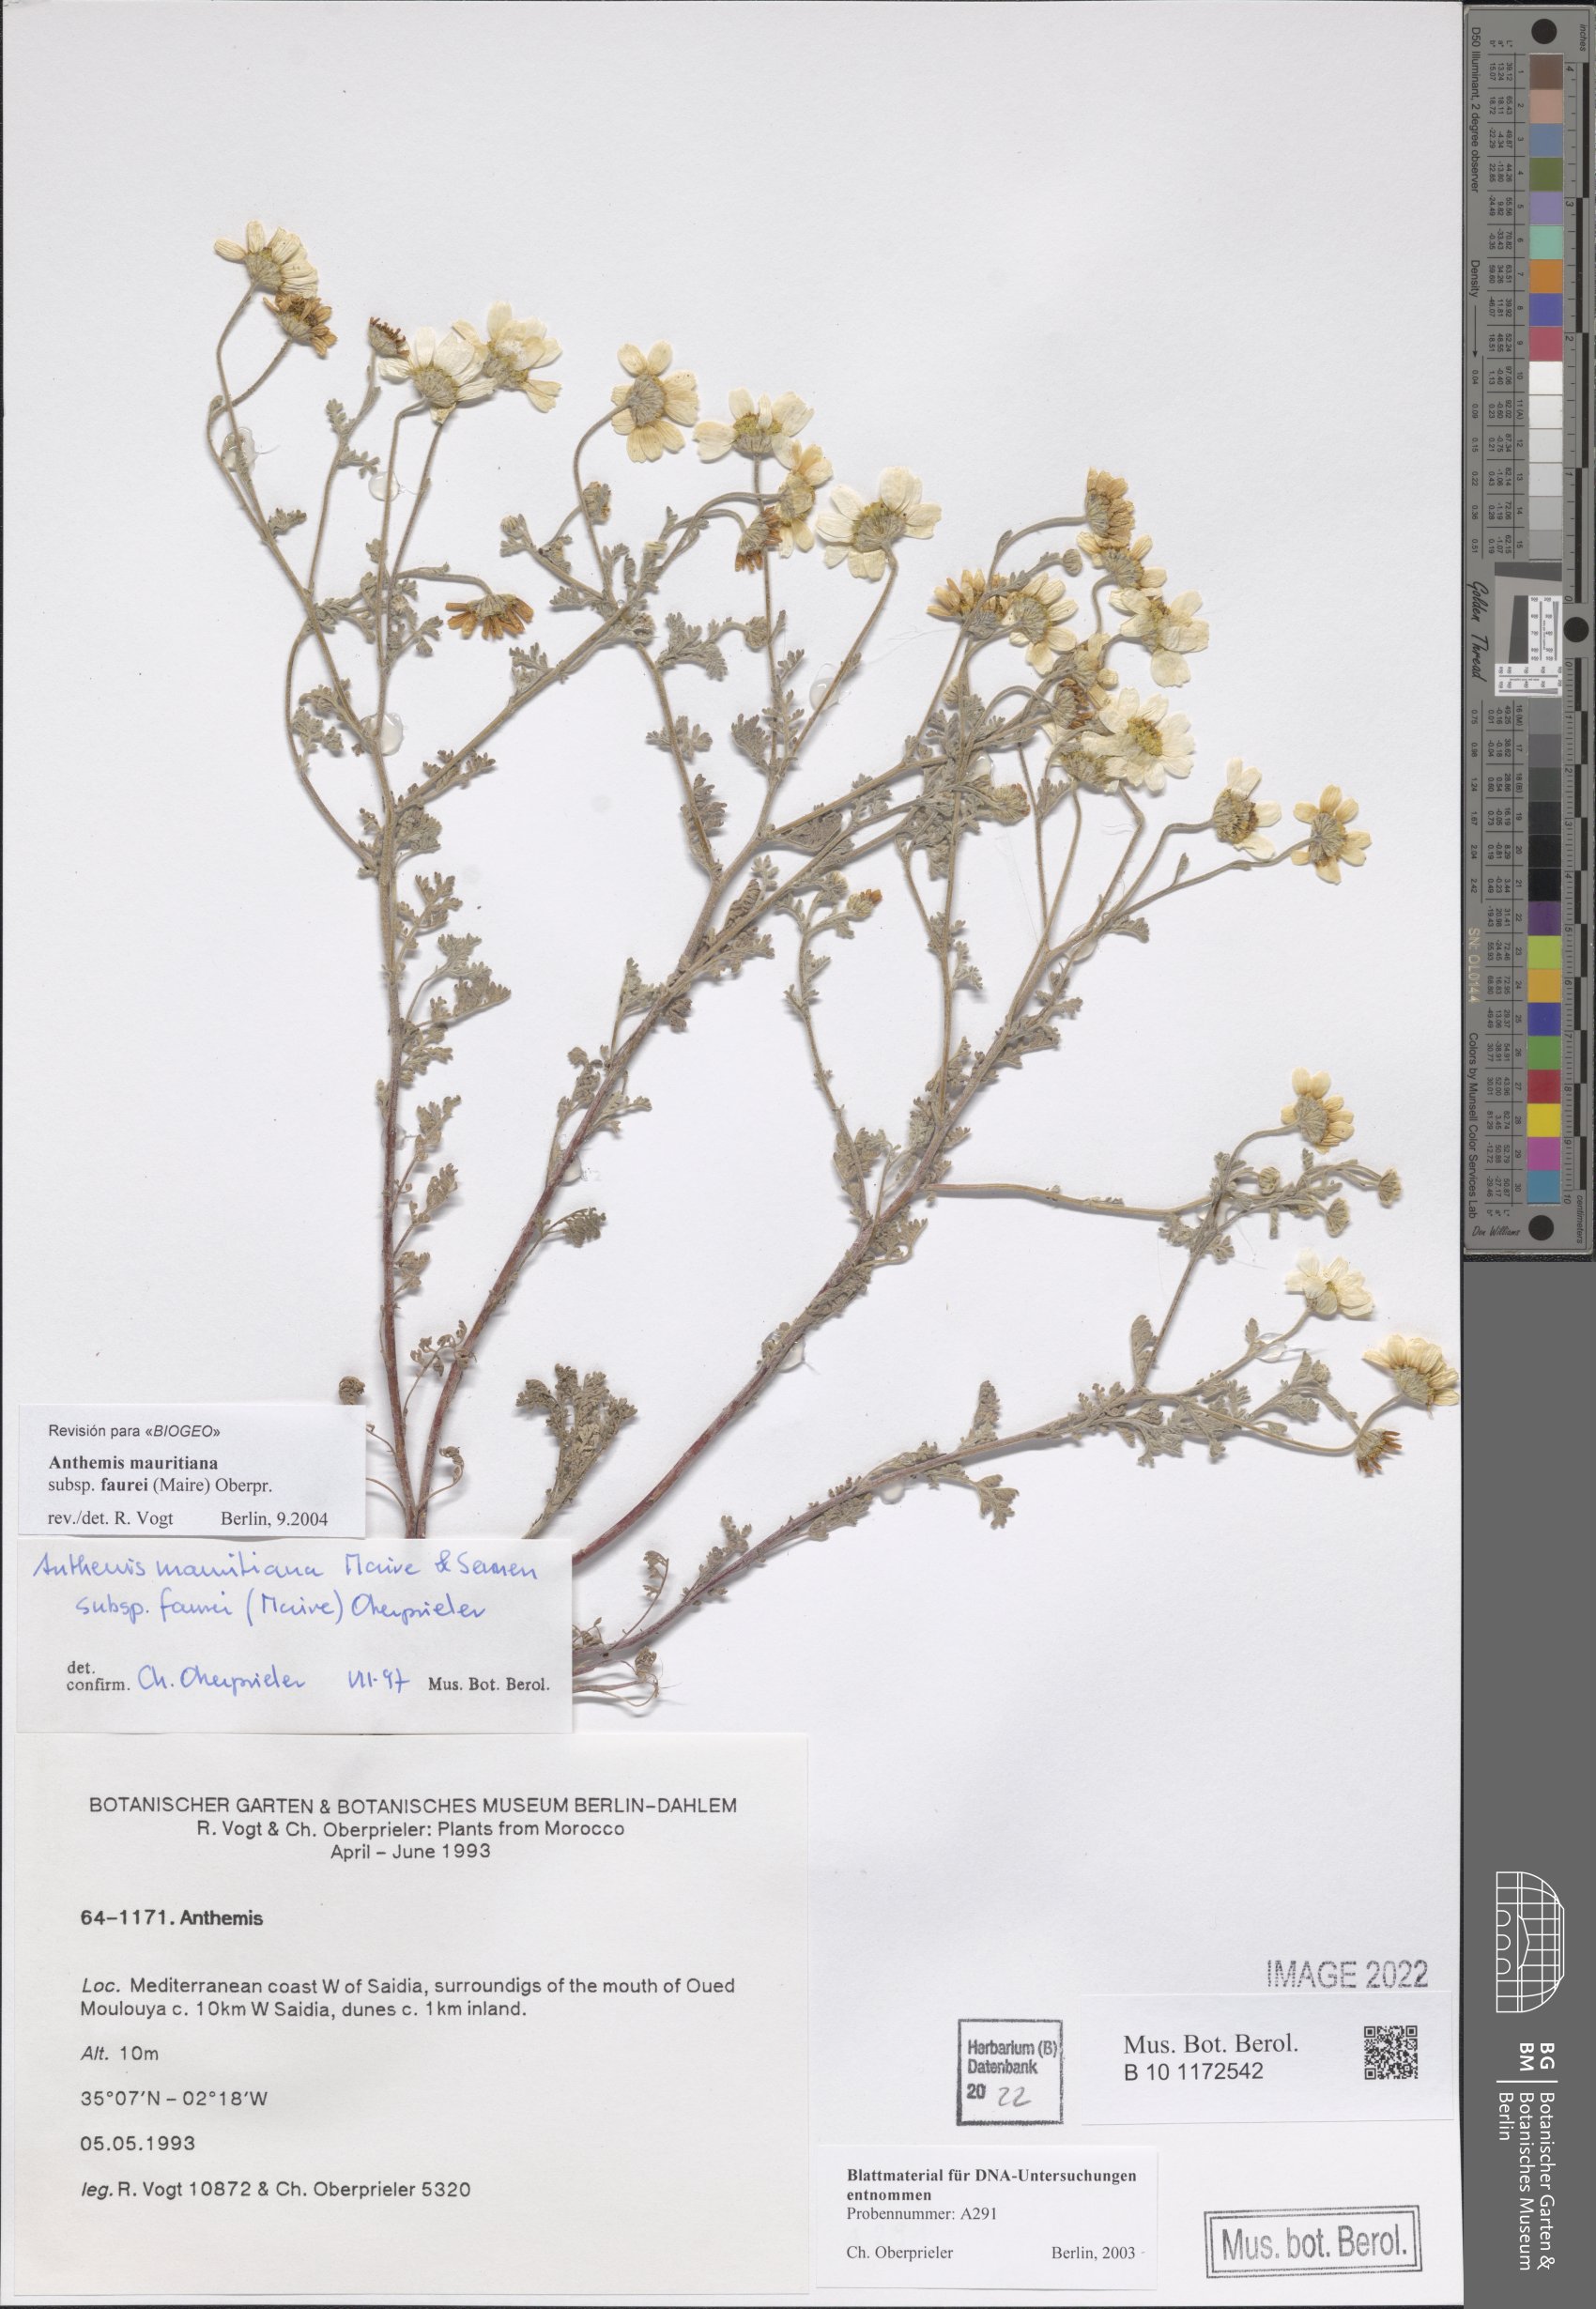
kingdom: Plantae
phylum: Tracheophyta
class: Magnoliopsida
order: Asterales
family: Asteraceae
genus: Anthemis
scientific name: Anthemis mauritiana
